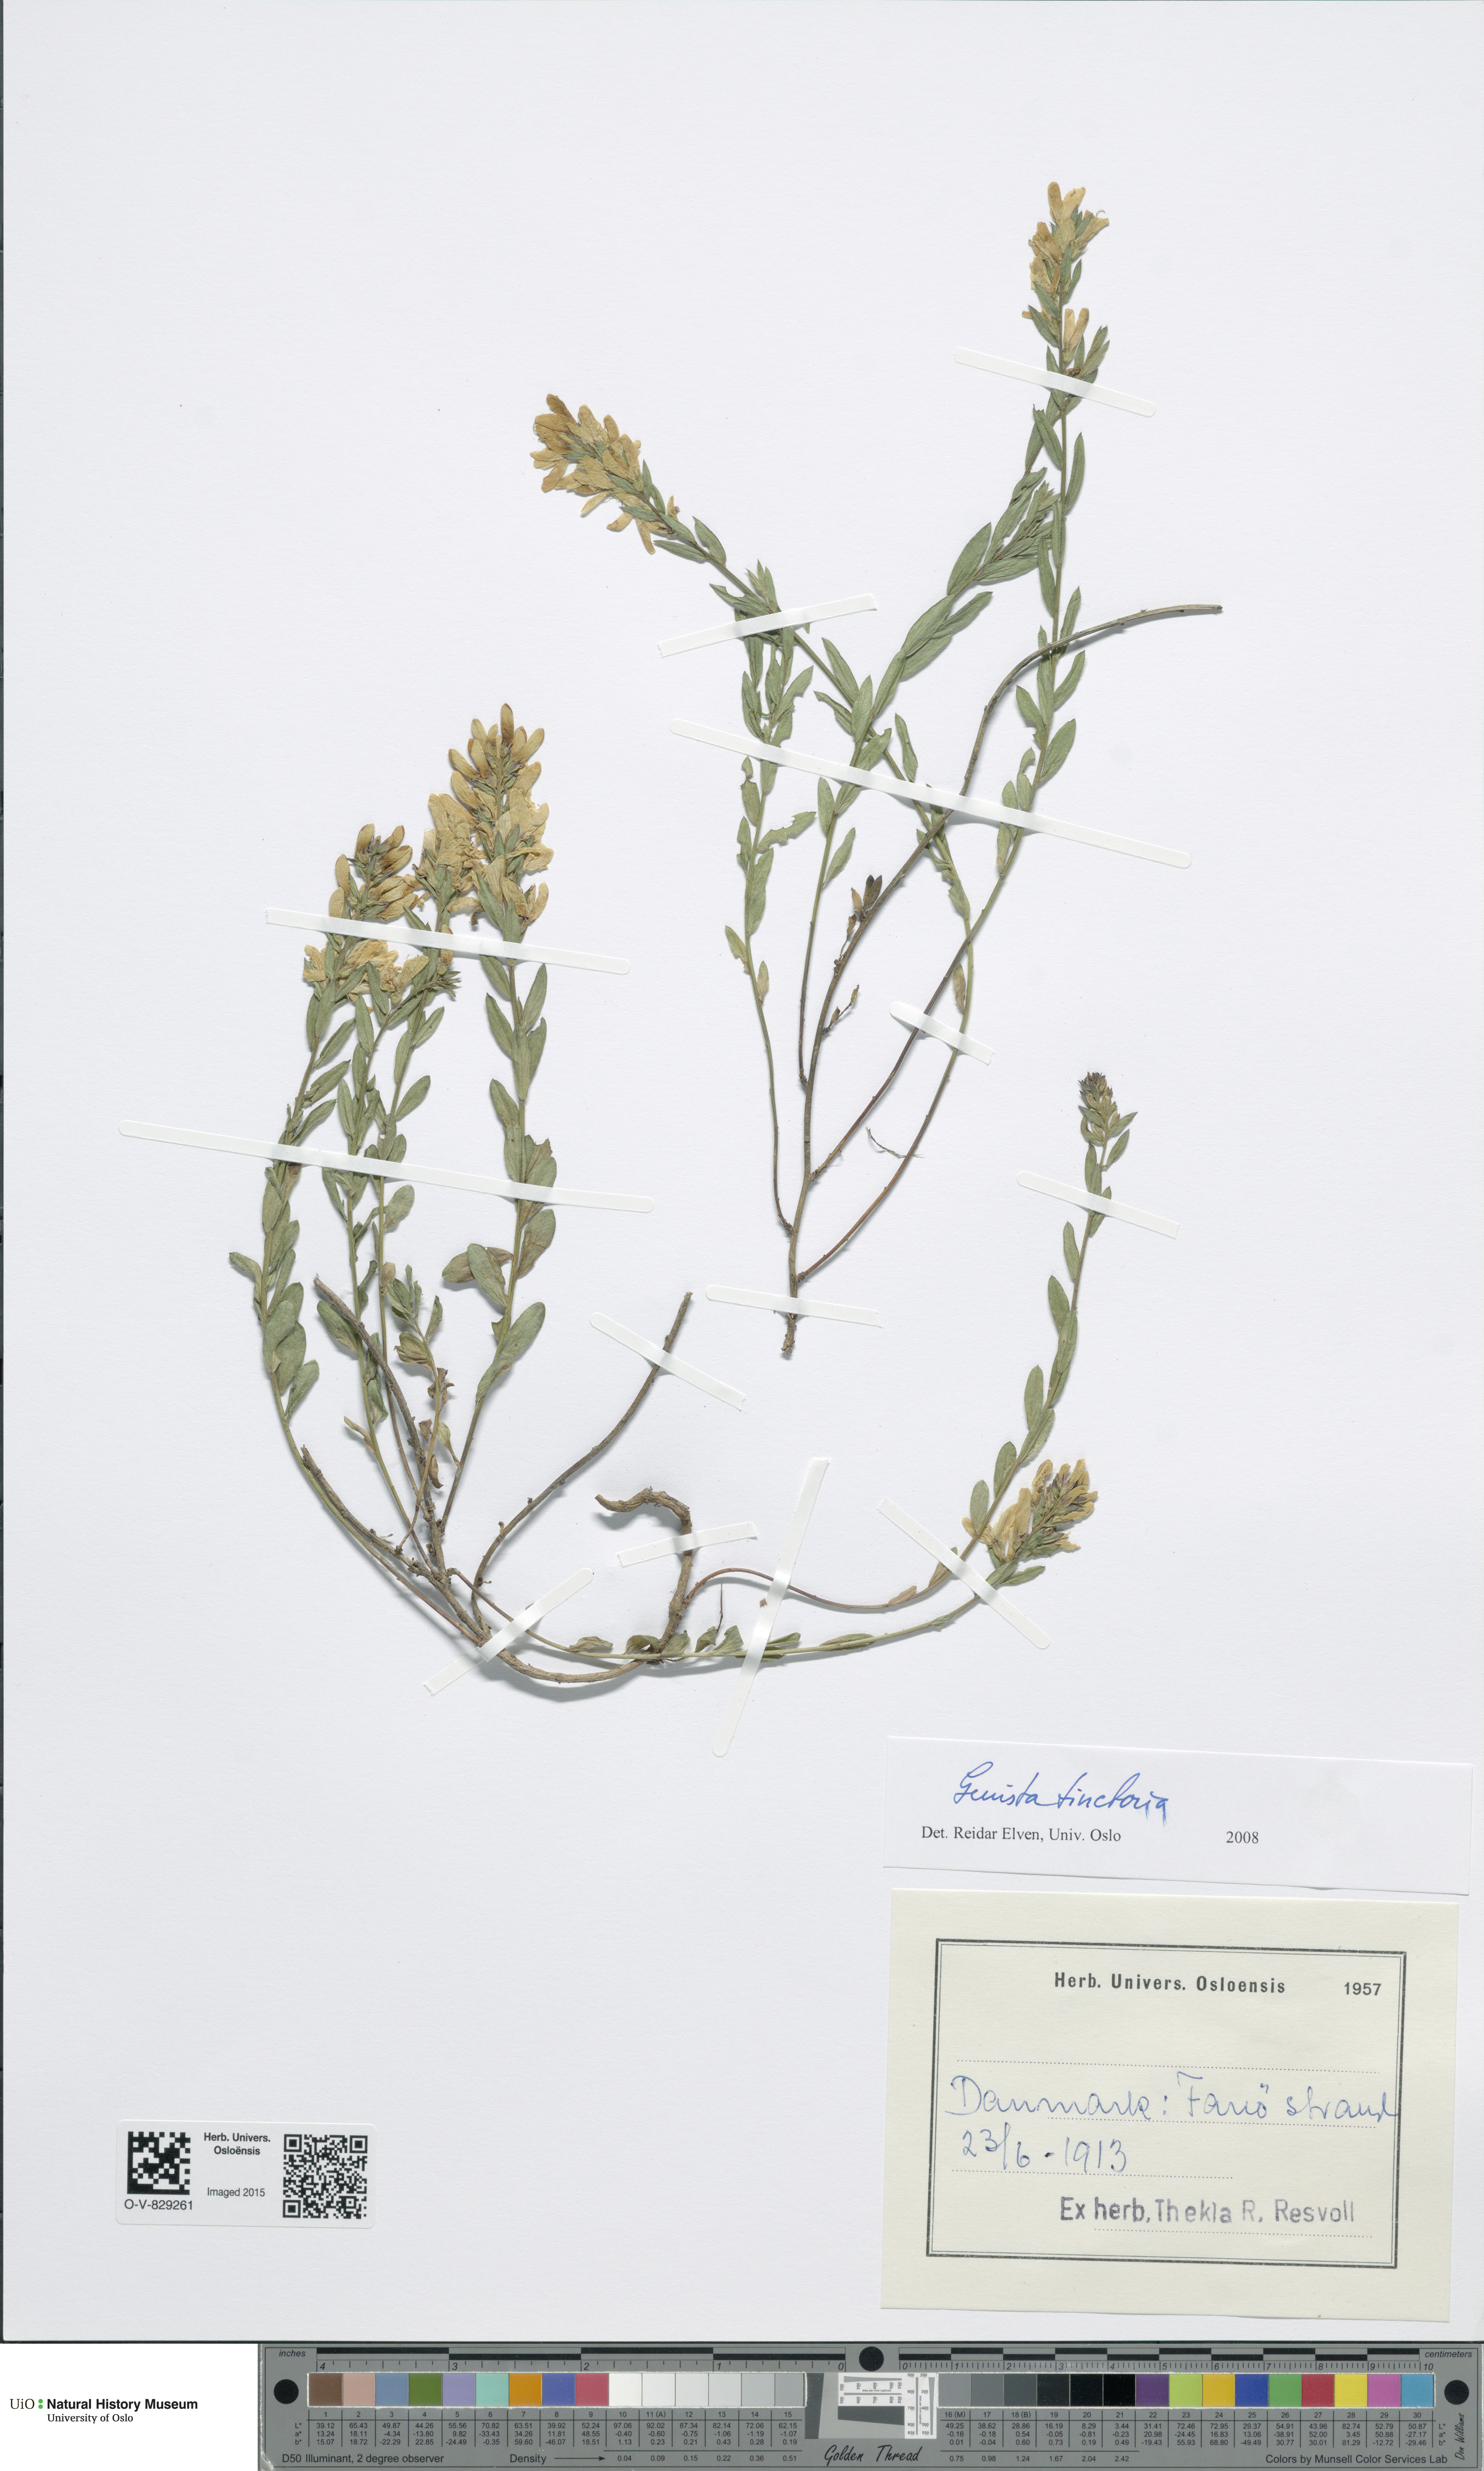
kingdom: Plantae
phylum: Tracheophyta
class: Magnoliopsida
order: Fabales
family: Fabaceae
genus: Genista
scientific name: Genista tinctoria
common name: Dyer's greenweed
